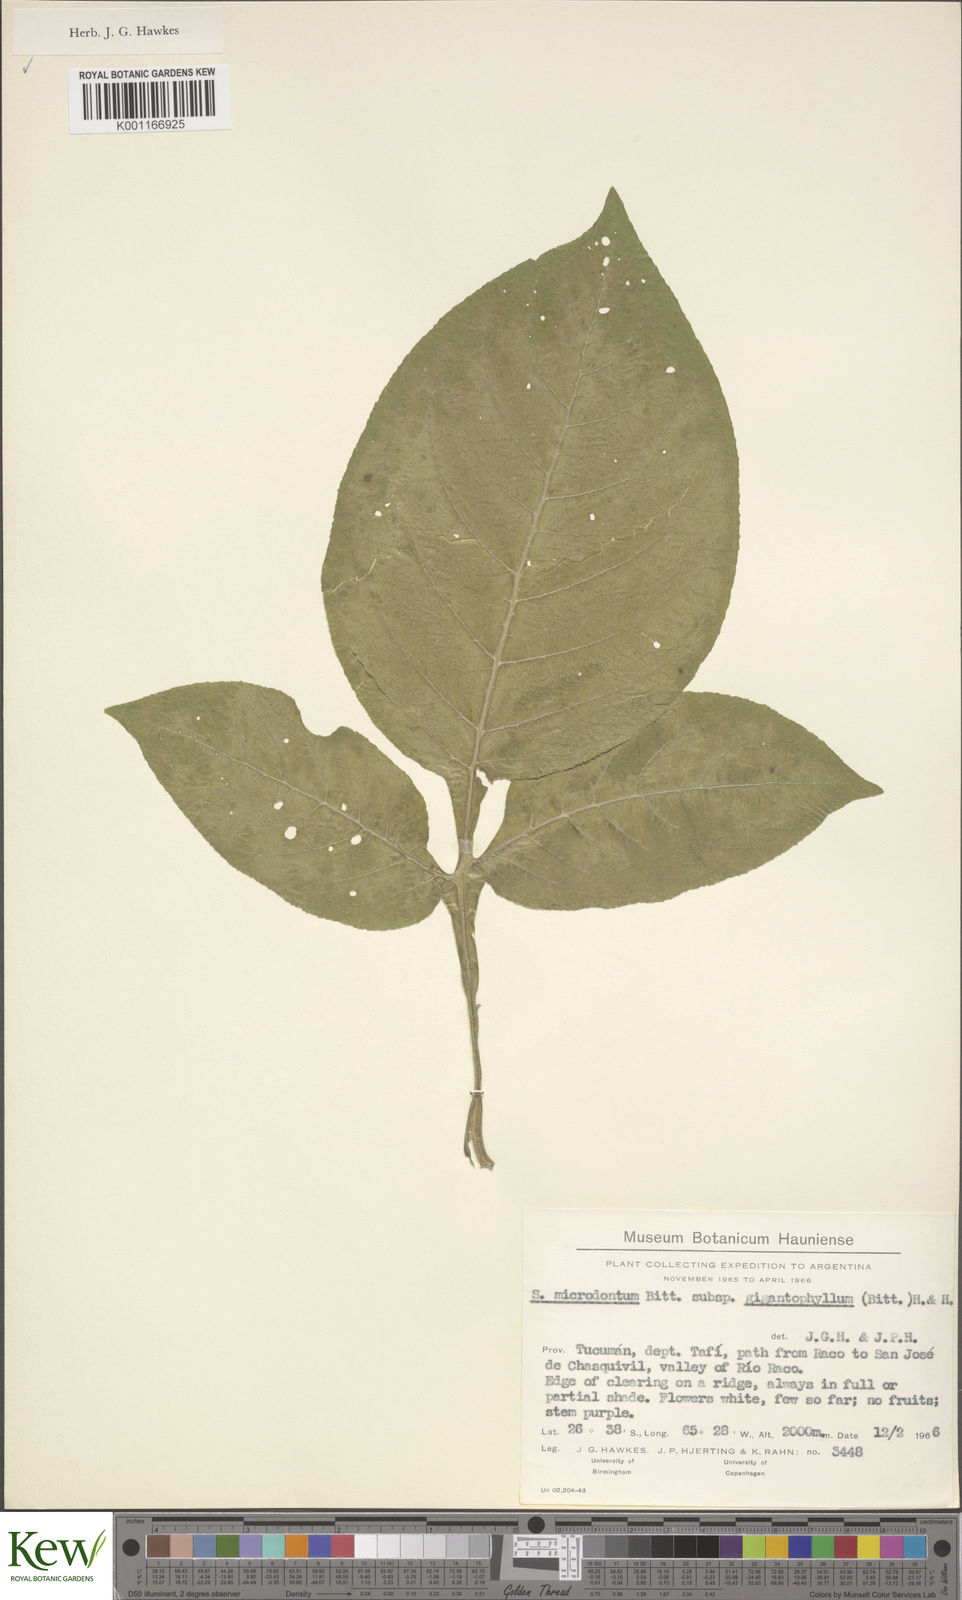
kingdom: Plantae
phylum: Tracheophyta
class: Magnoliopsida
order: Solanales
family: Solanaceae
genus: Solanum
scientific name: Solanum microdontum
